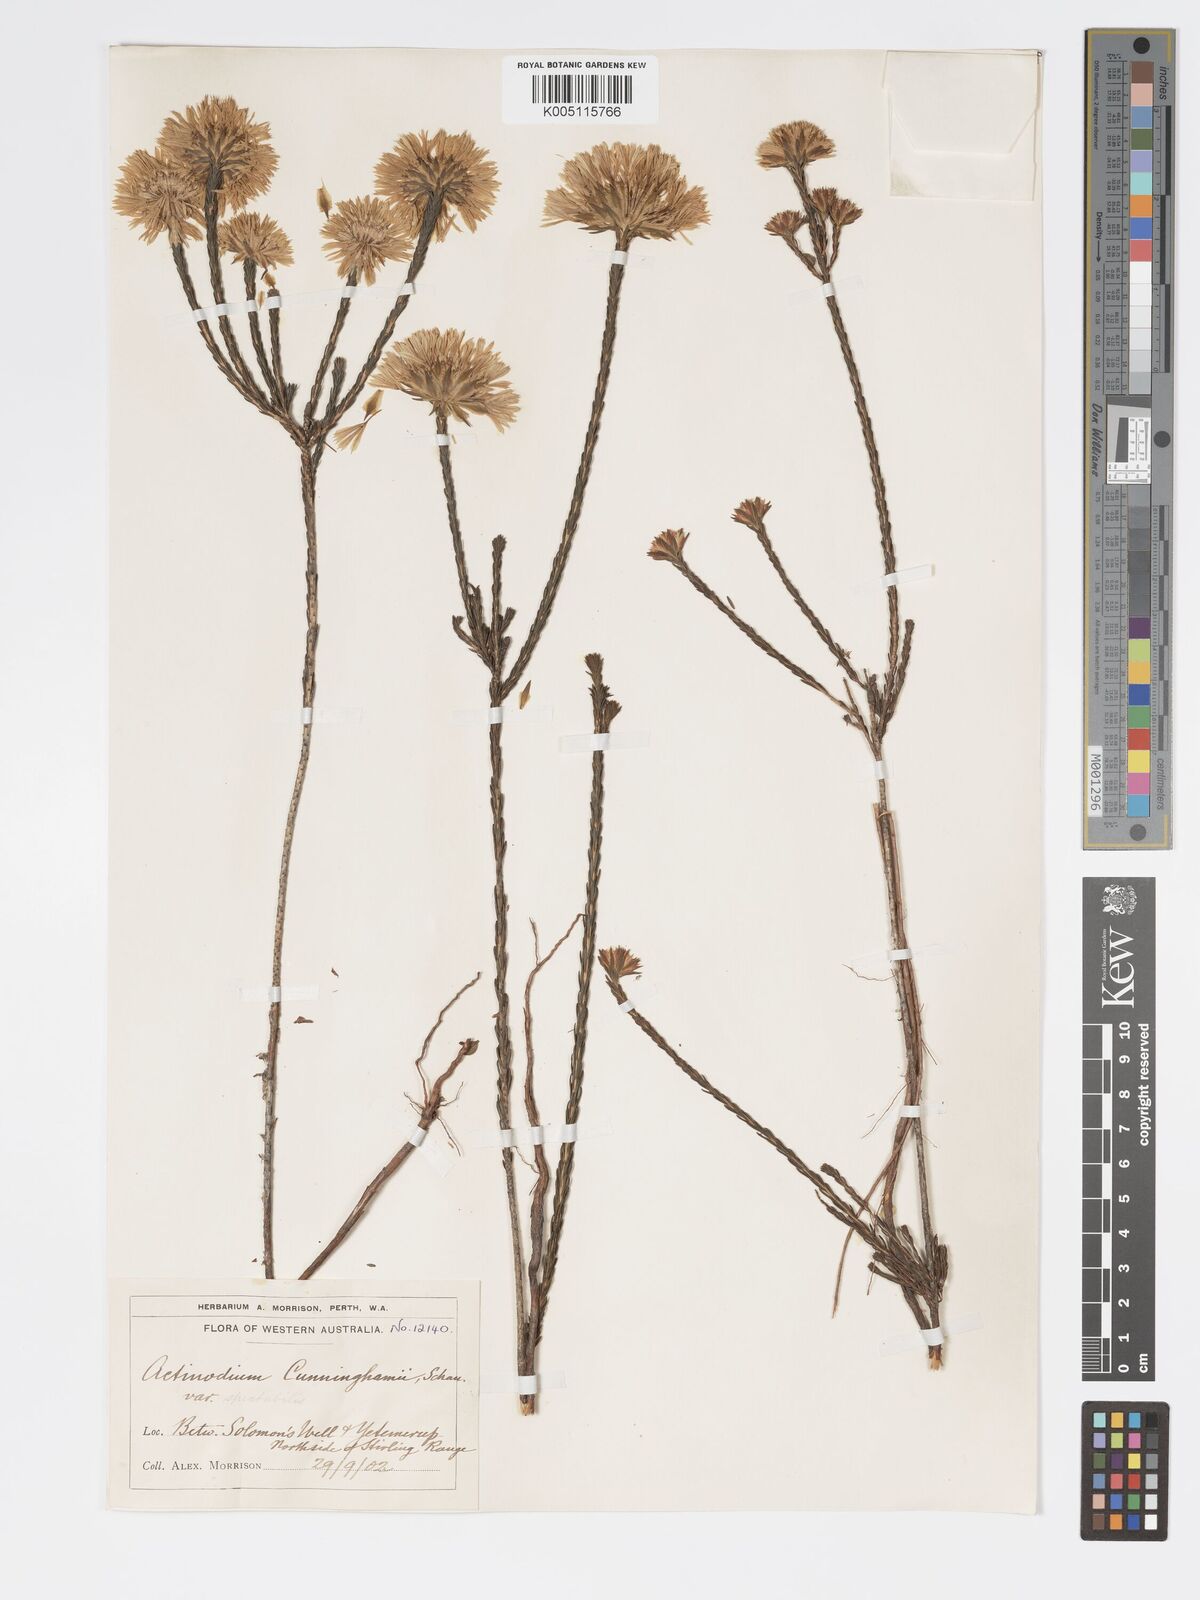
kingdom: Plantae
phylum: Tracheophyta
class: Magnoliopsida
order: Myrtales
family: Myrtaceae
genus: Actinodium
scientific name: Actinodium cunninghamii
